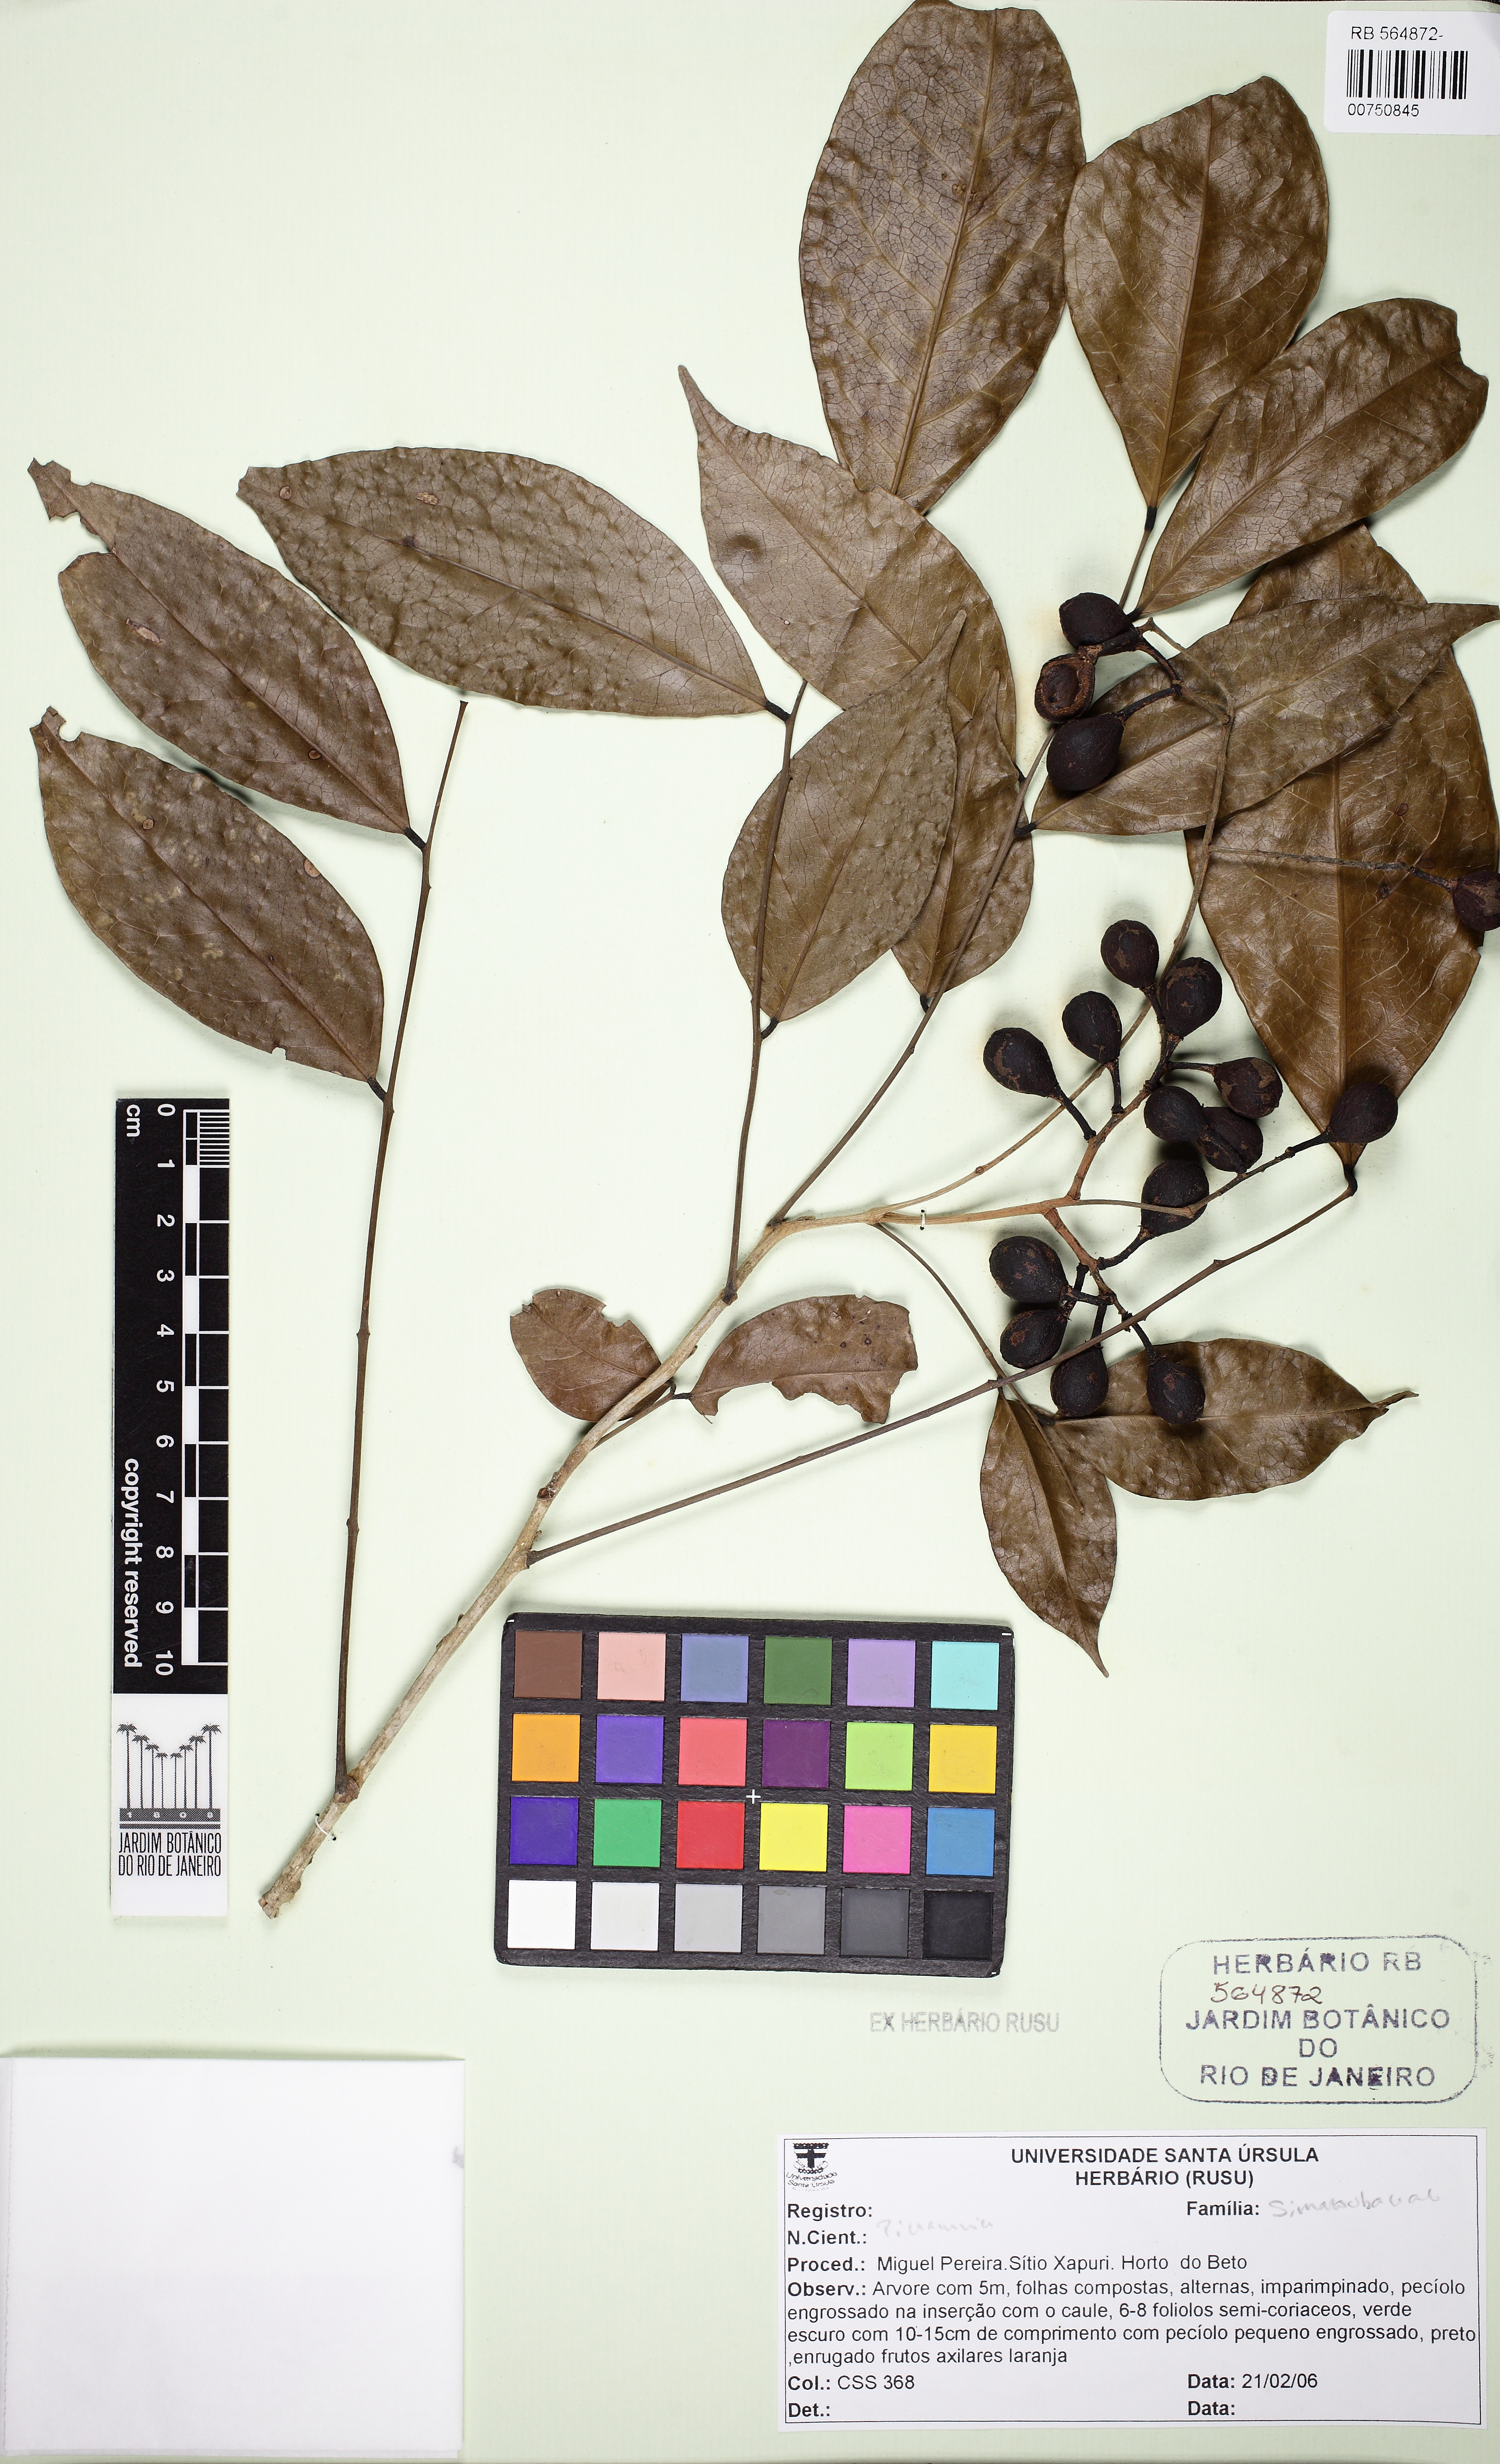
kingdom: Plantae
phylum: Tracheophyta
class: Magnoliopsida
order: Picramniales
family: Picramniaceae
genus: Picramnia
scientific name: Picramnia glazioviana
